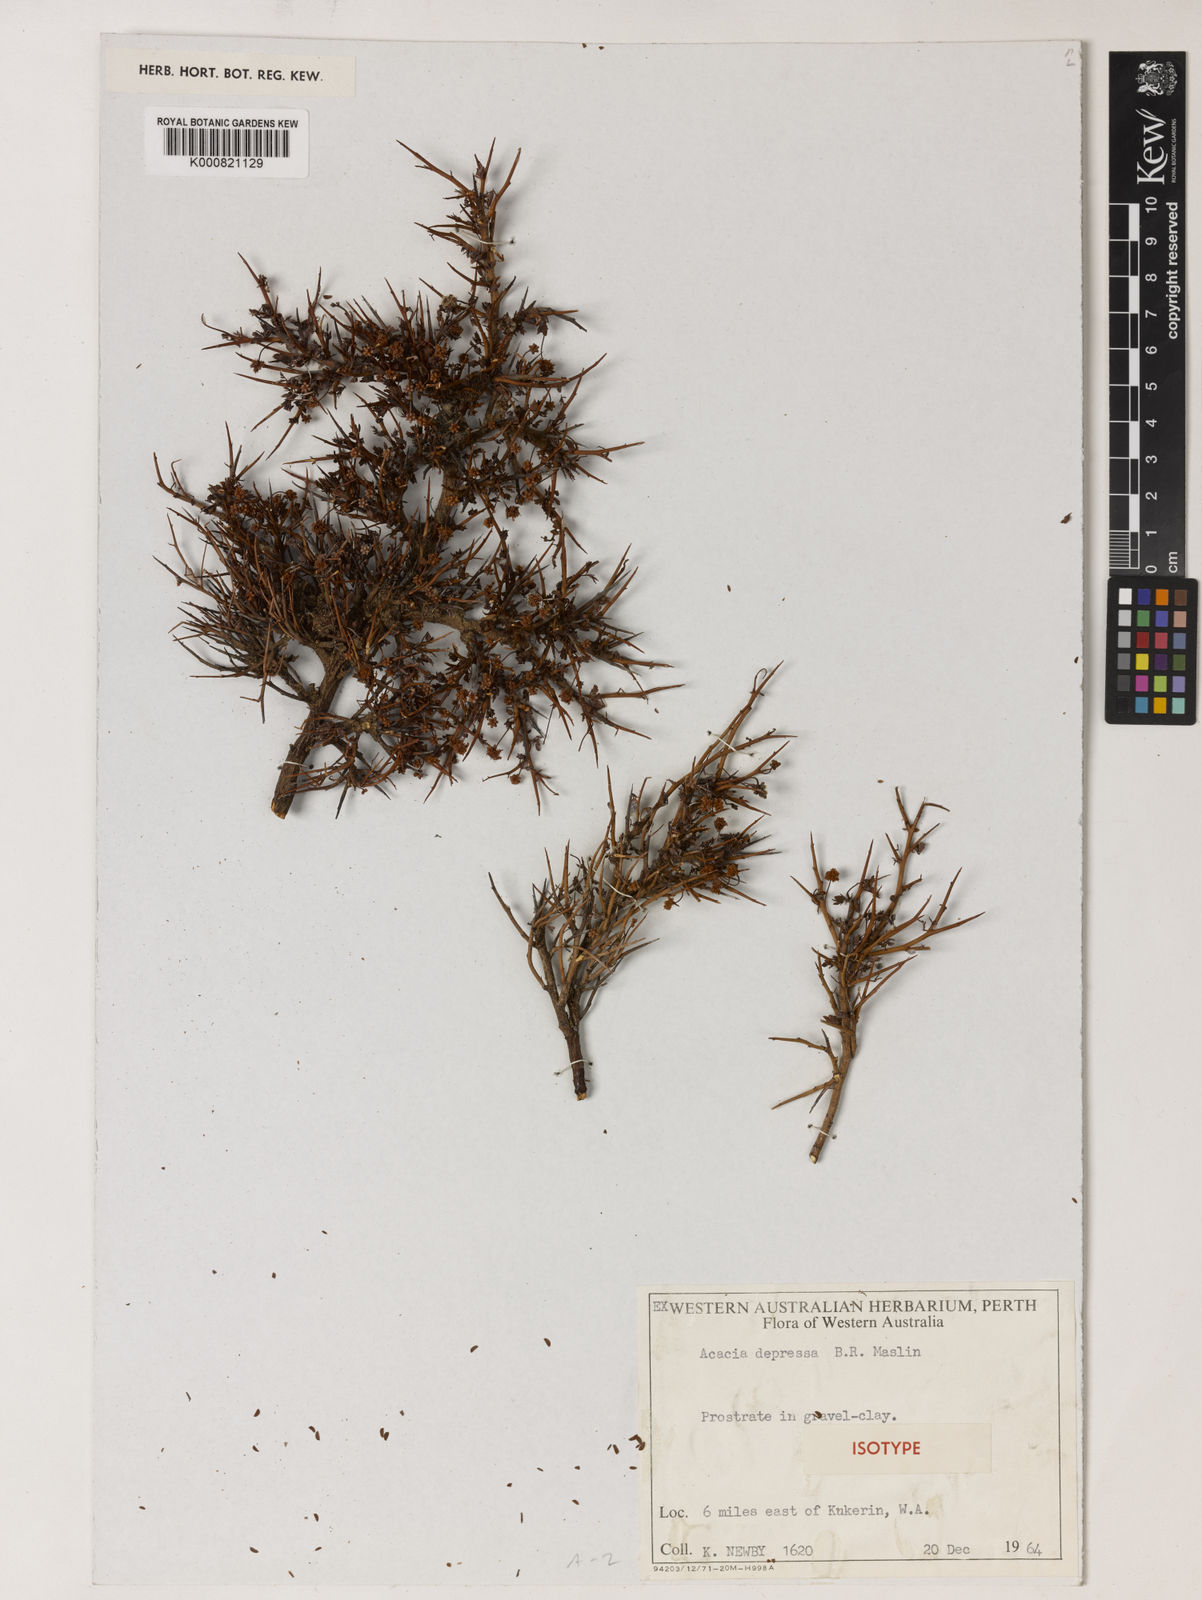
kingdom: Plantae
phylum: Tracheophyta
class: Magnoliopsida
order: Fabales
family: Fabaceae
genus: Acacia
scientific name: Acacia depressa
